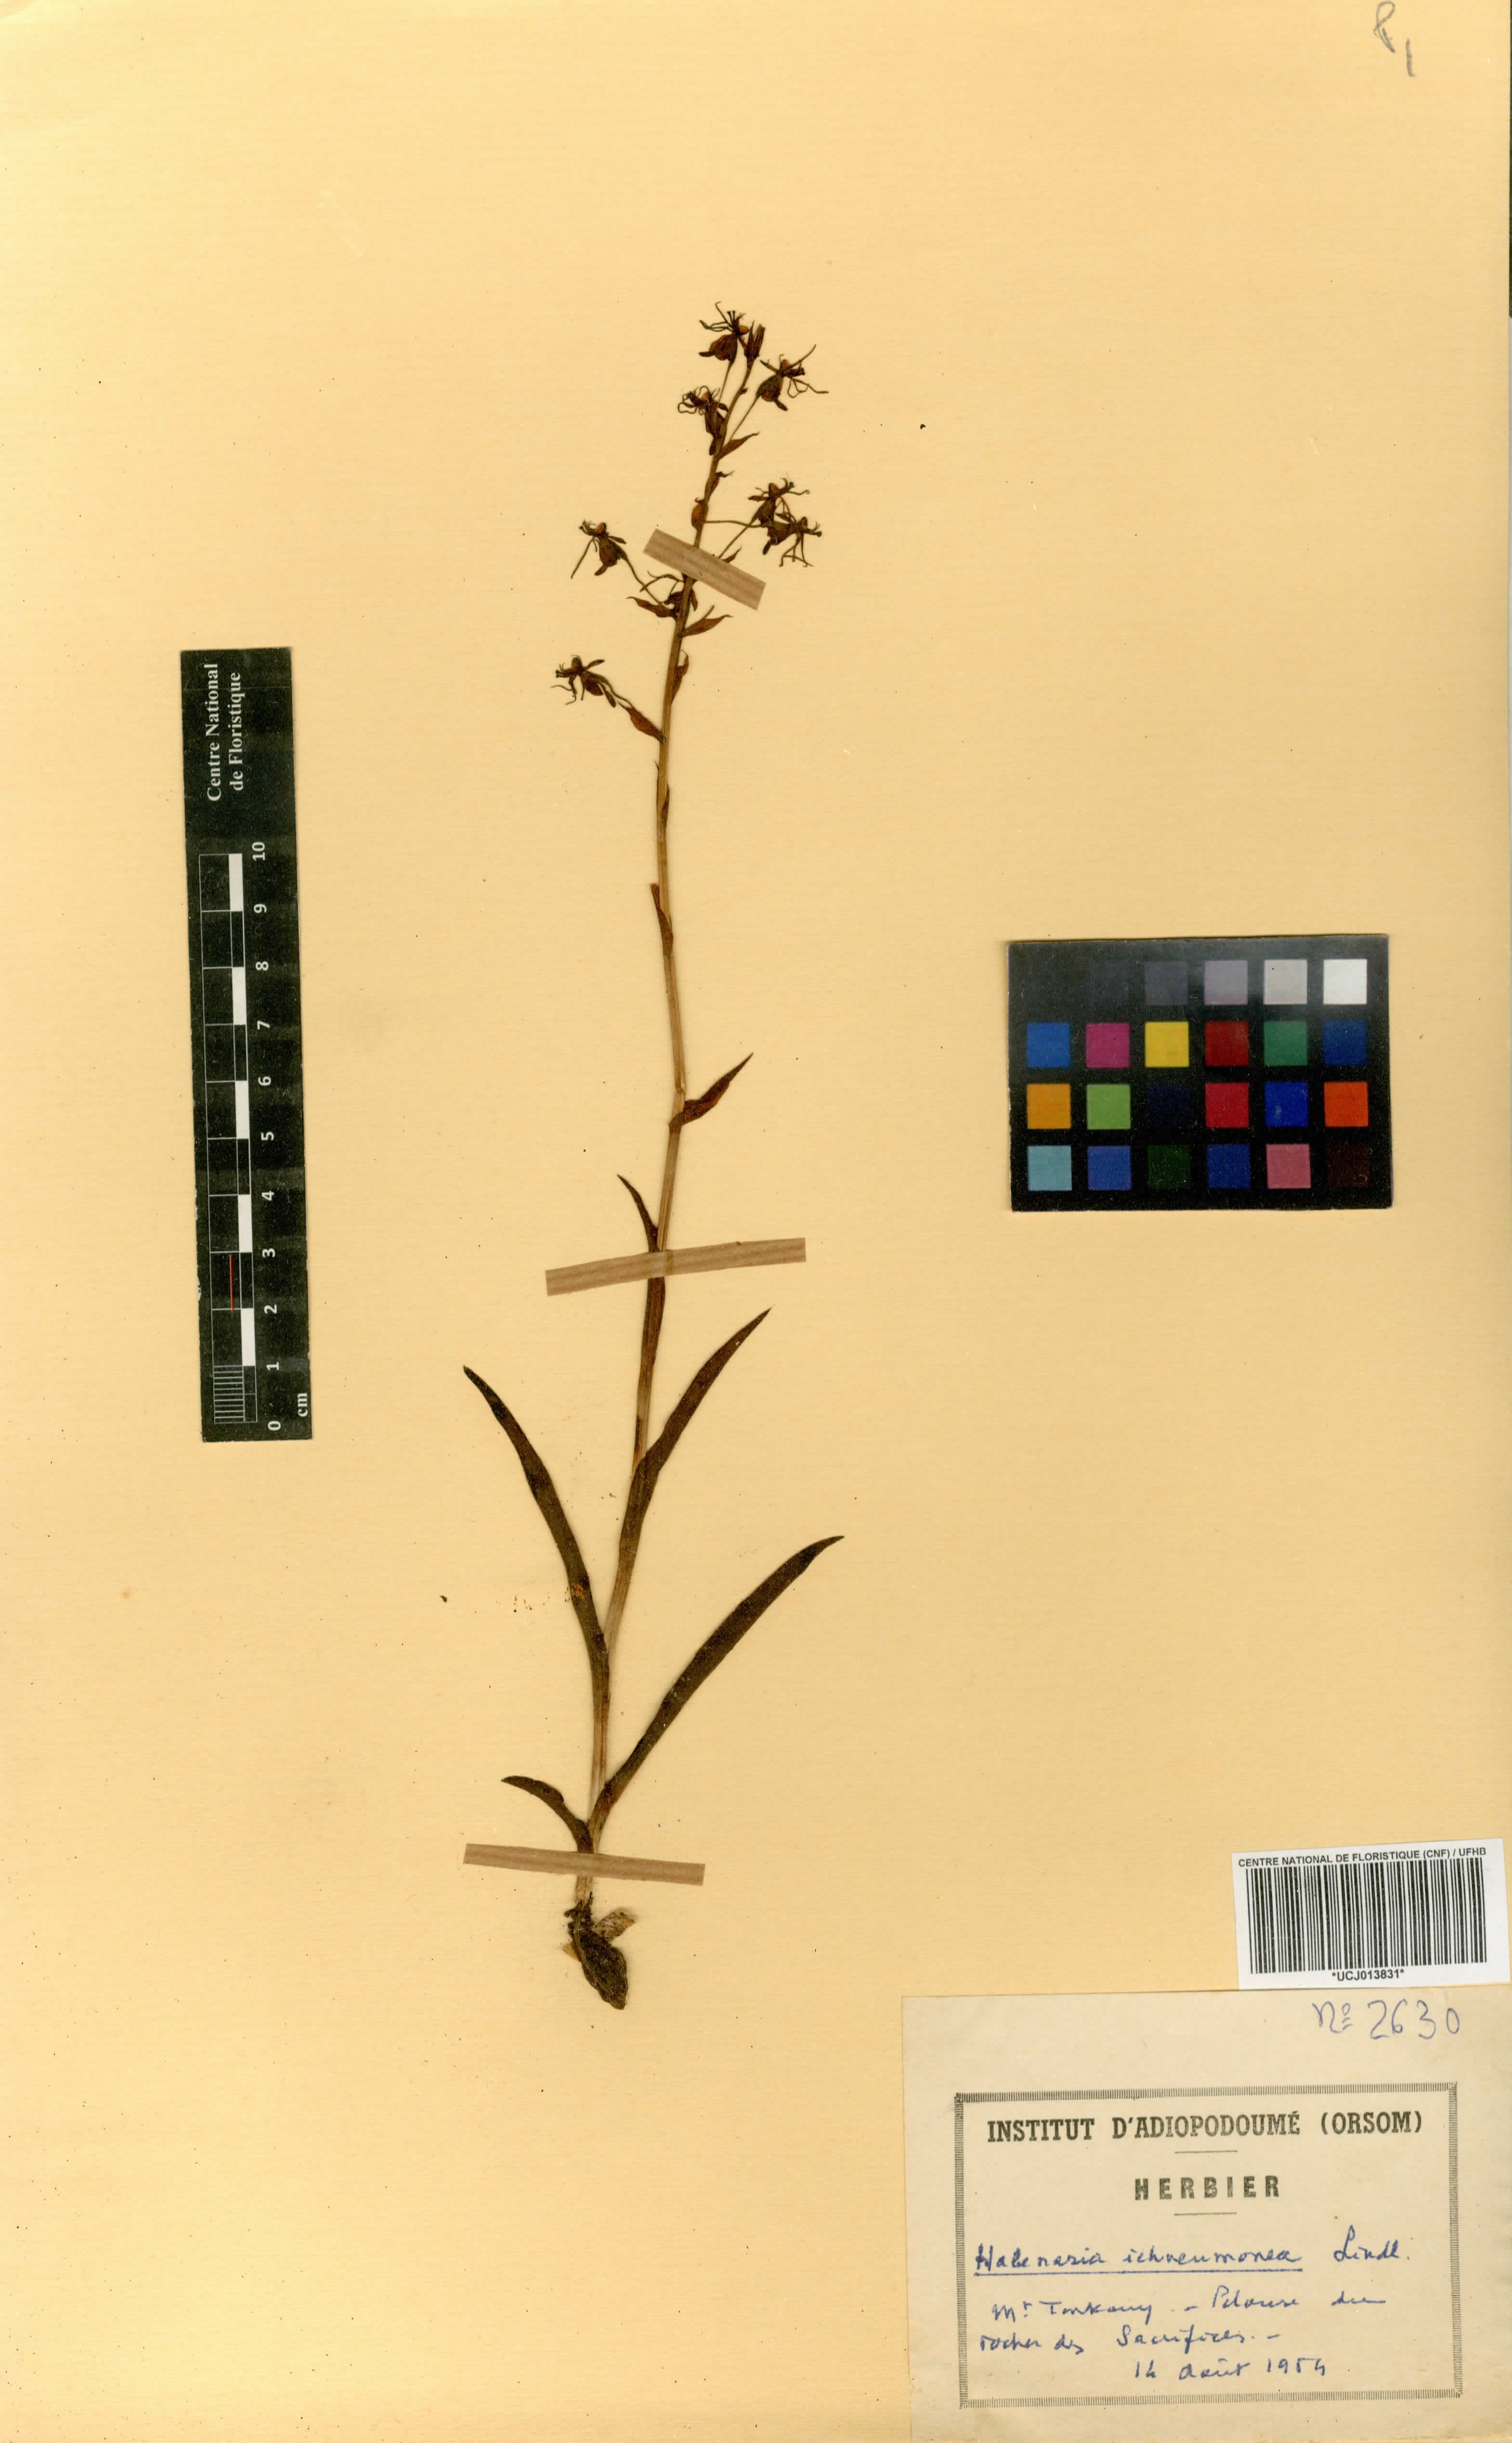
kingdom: Plantae
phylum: Tracheophyta
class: Liliopsida
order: Asparagales
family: Orchidaceae
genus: Habenaria
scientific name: Habenaria ichneumonea
